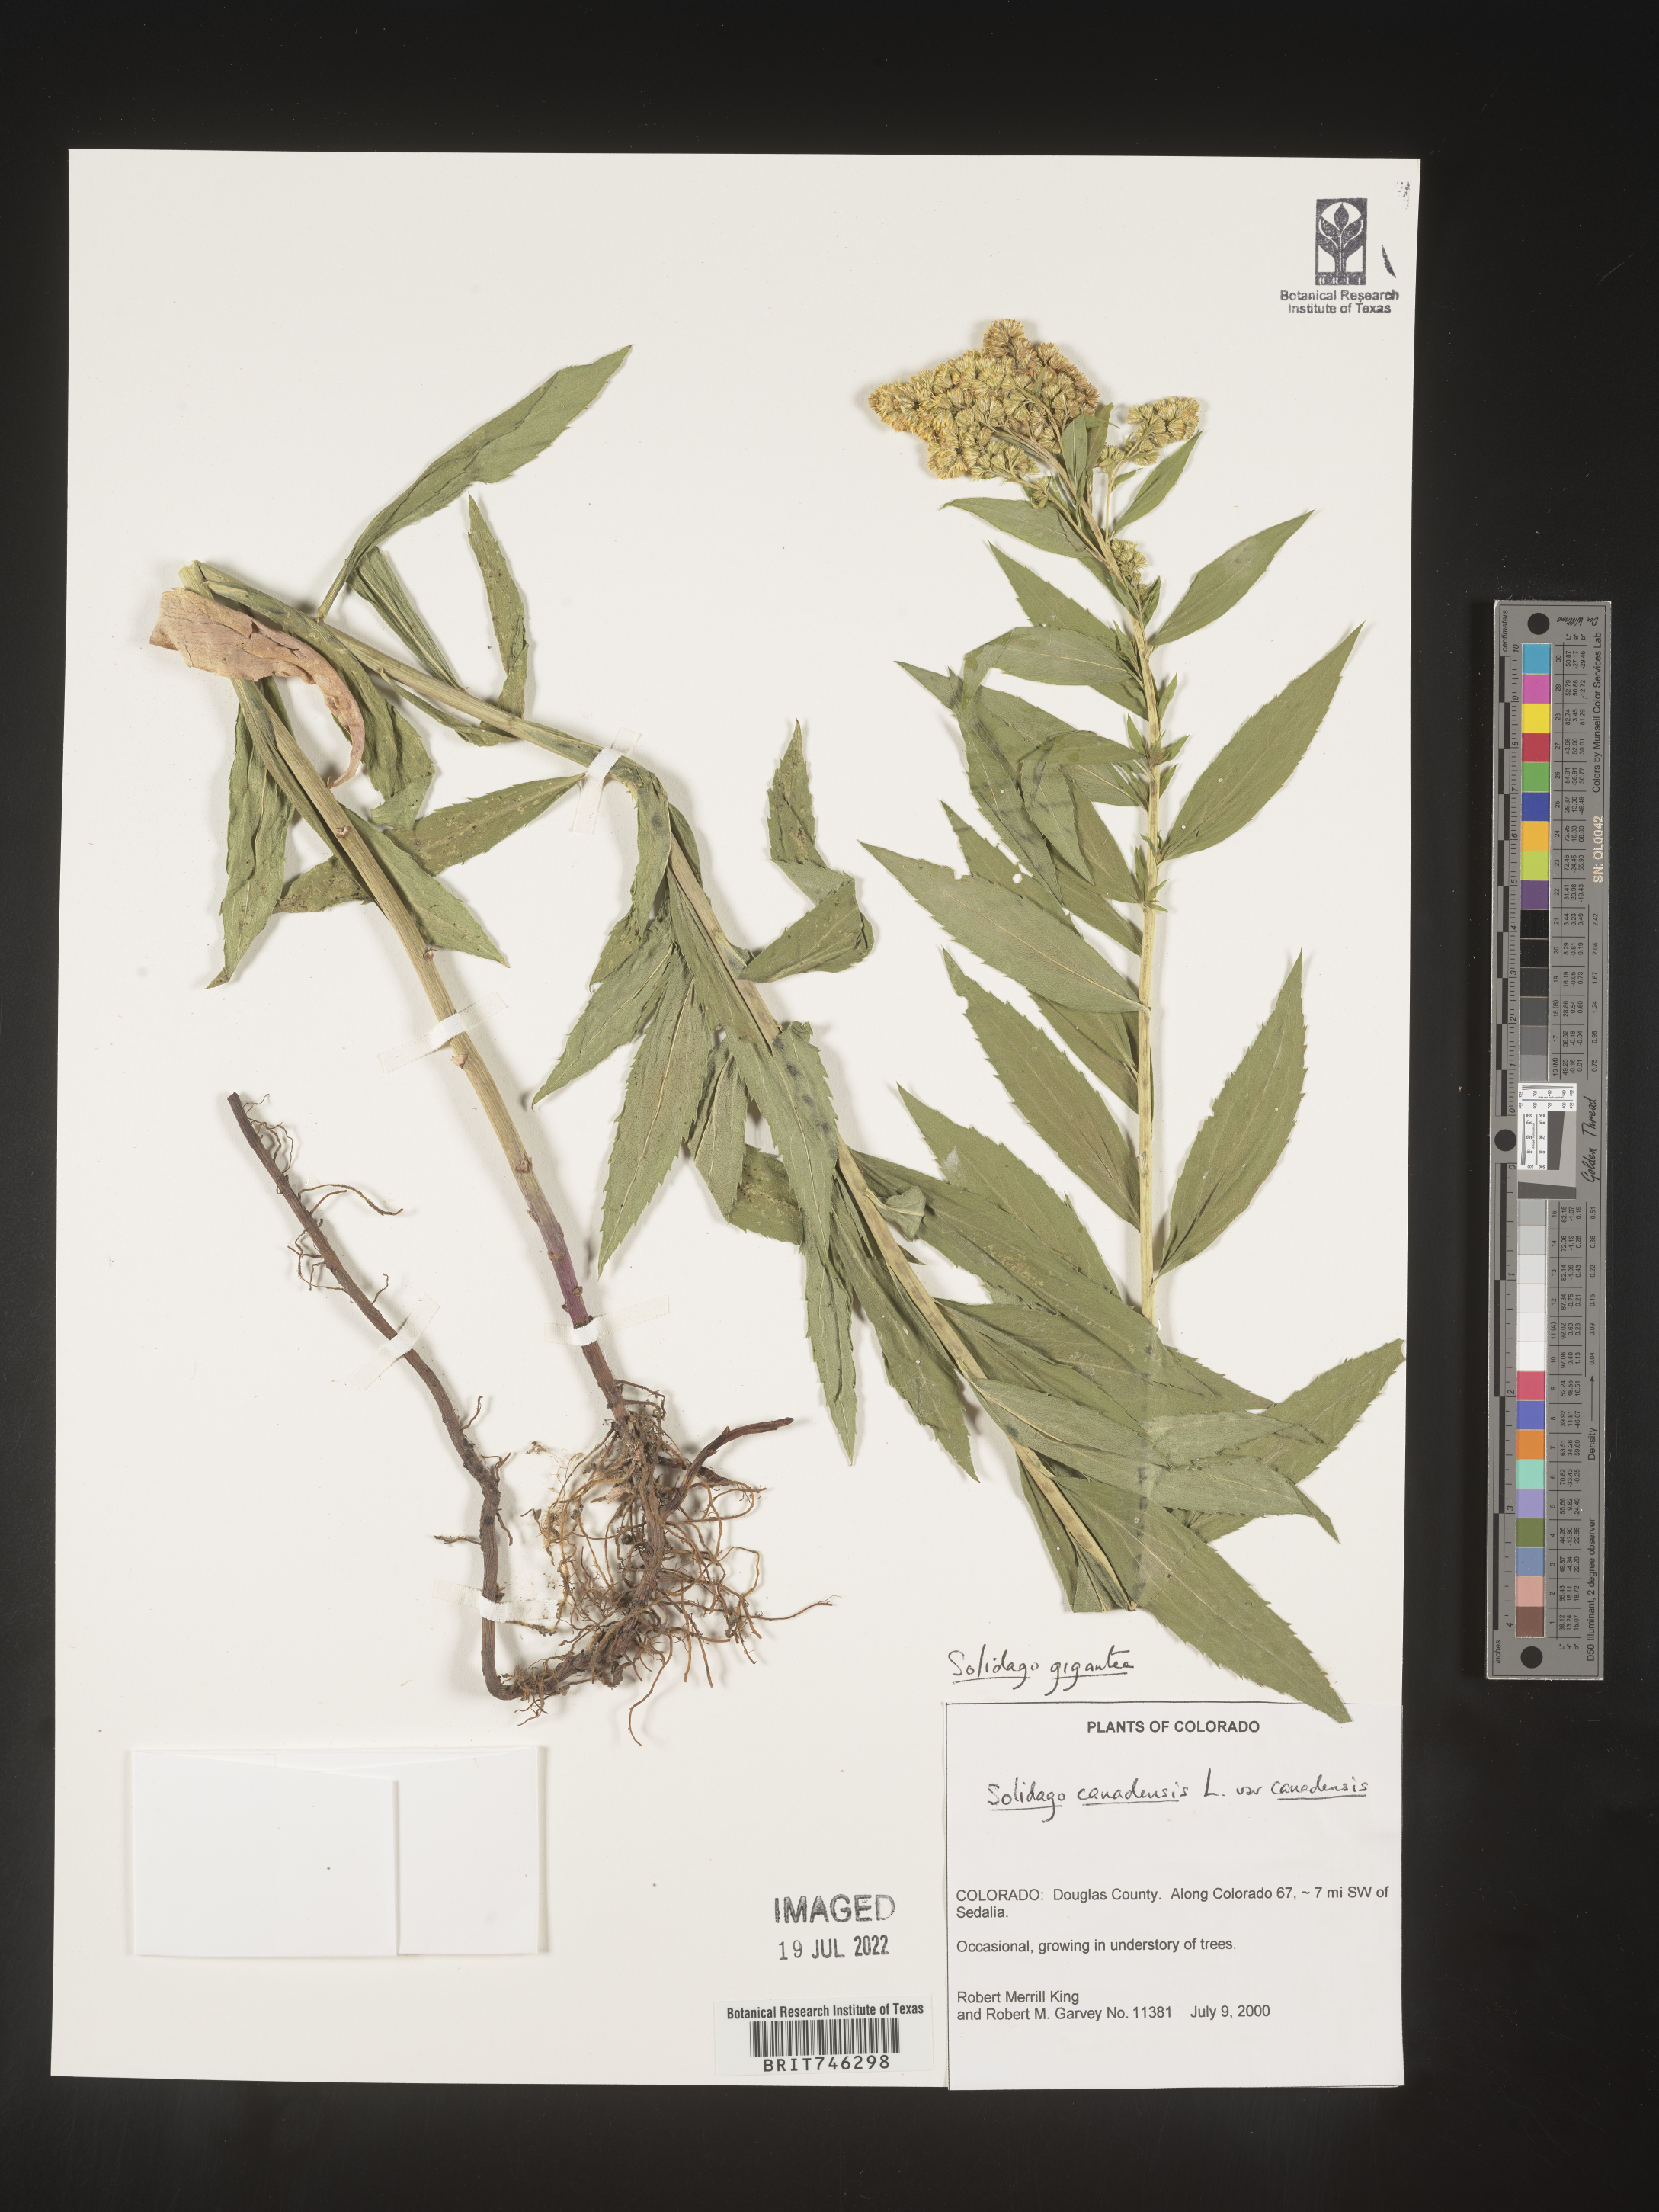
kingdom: Plantae
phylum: Tracheophyta
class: Magnoliopsida
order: Asterales
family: Asteraceae
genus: Solidago
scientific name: Solidago gigantea
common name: Giant goldenrod
